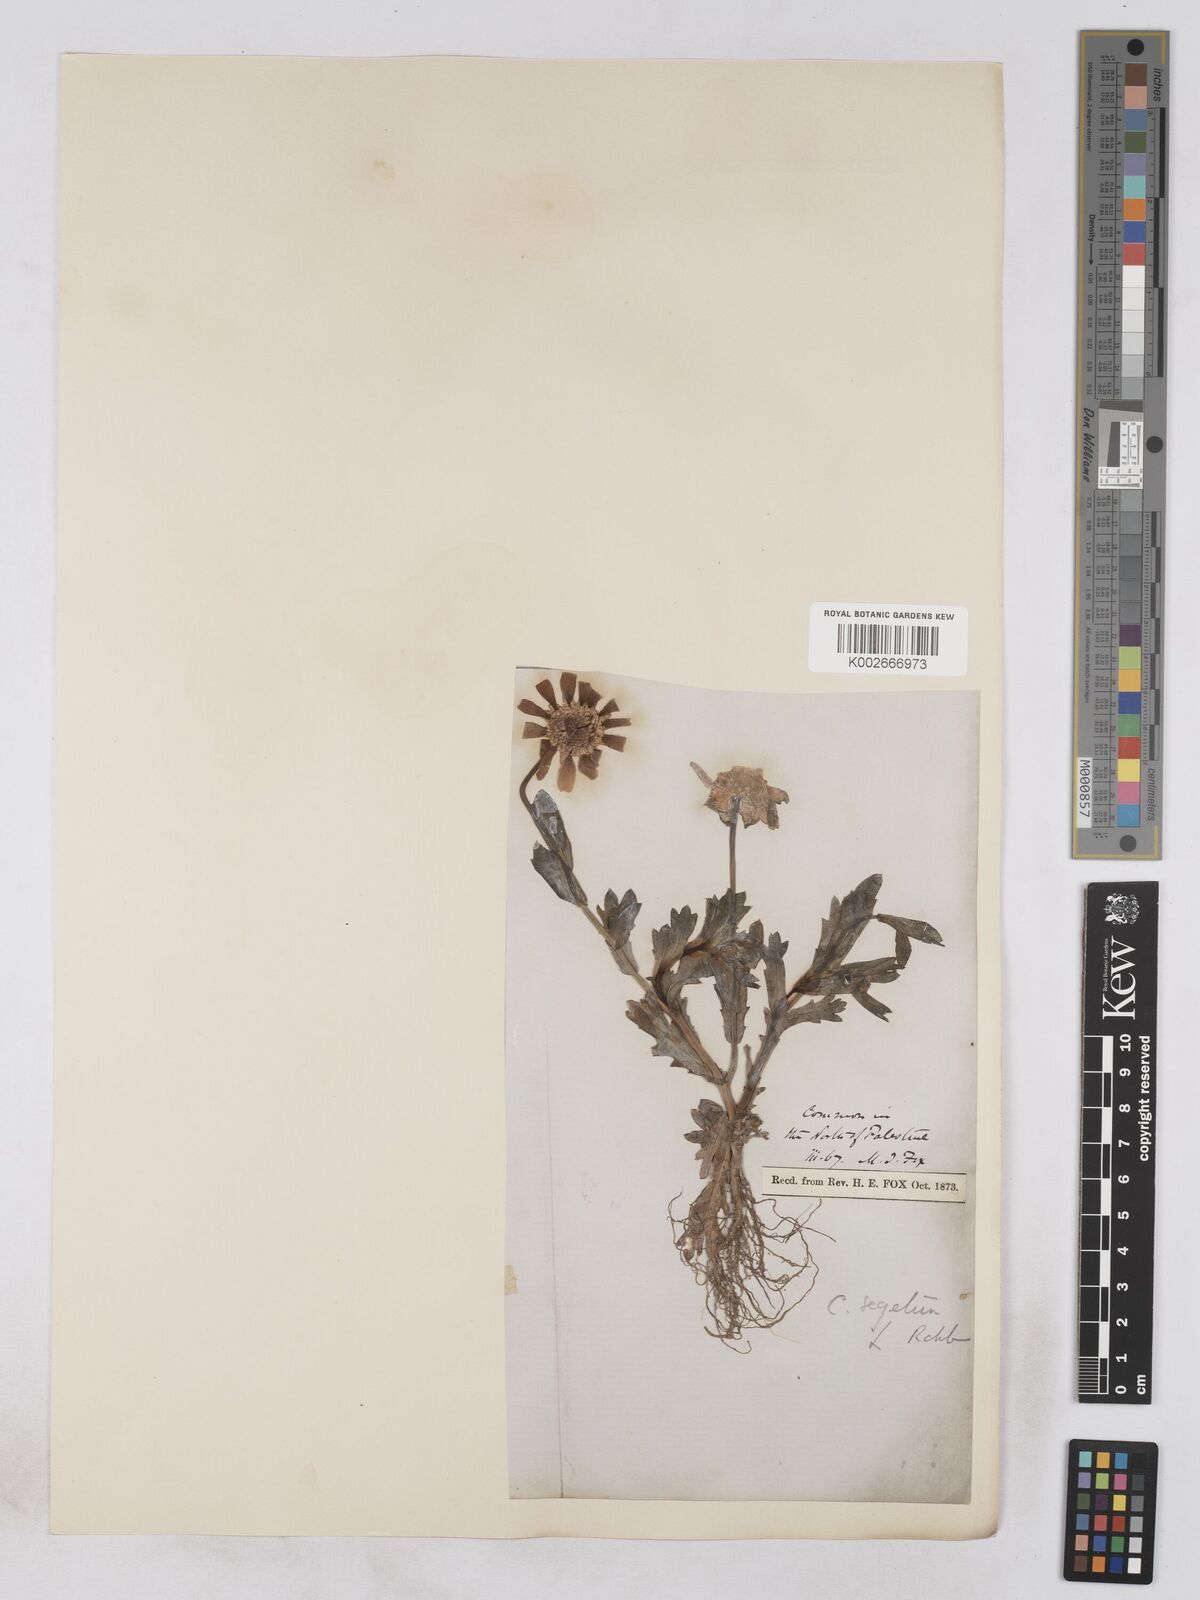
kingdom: Plantae
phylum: Tracheophyta
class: Magnoliopsida
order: Asterales
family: Asteraceae
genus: Glebionis
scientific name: Glebionis segetum
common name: Corndaisy
